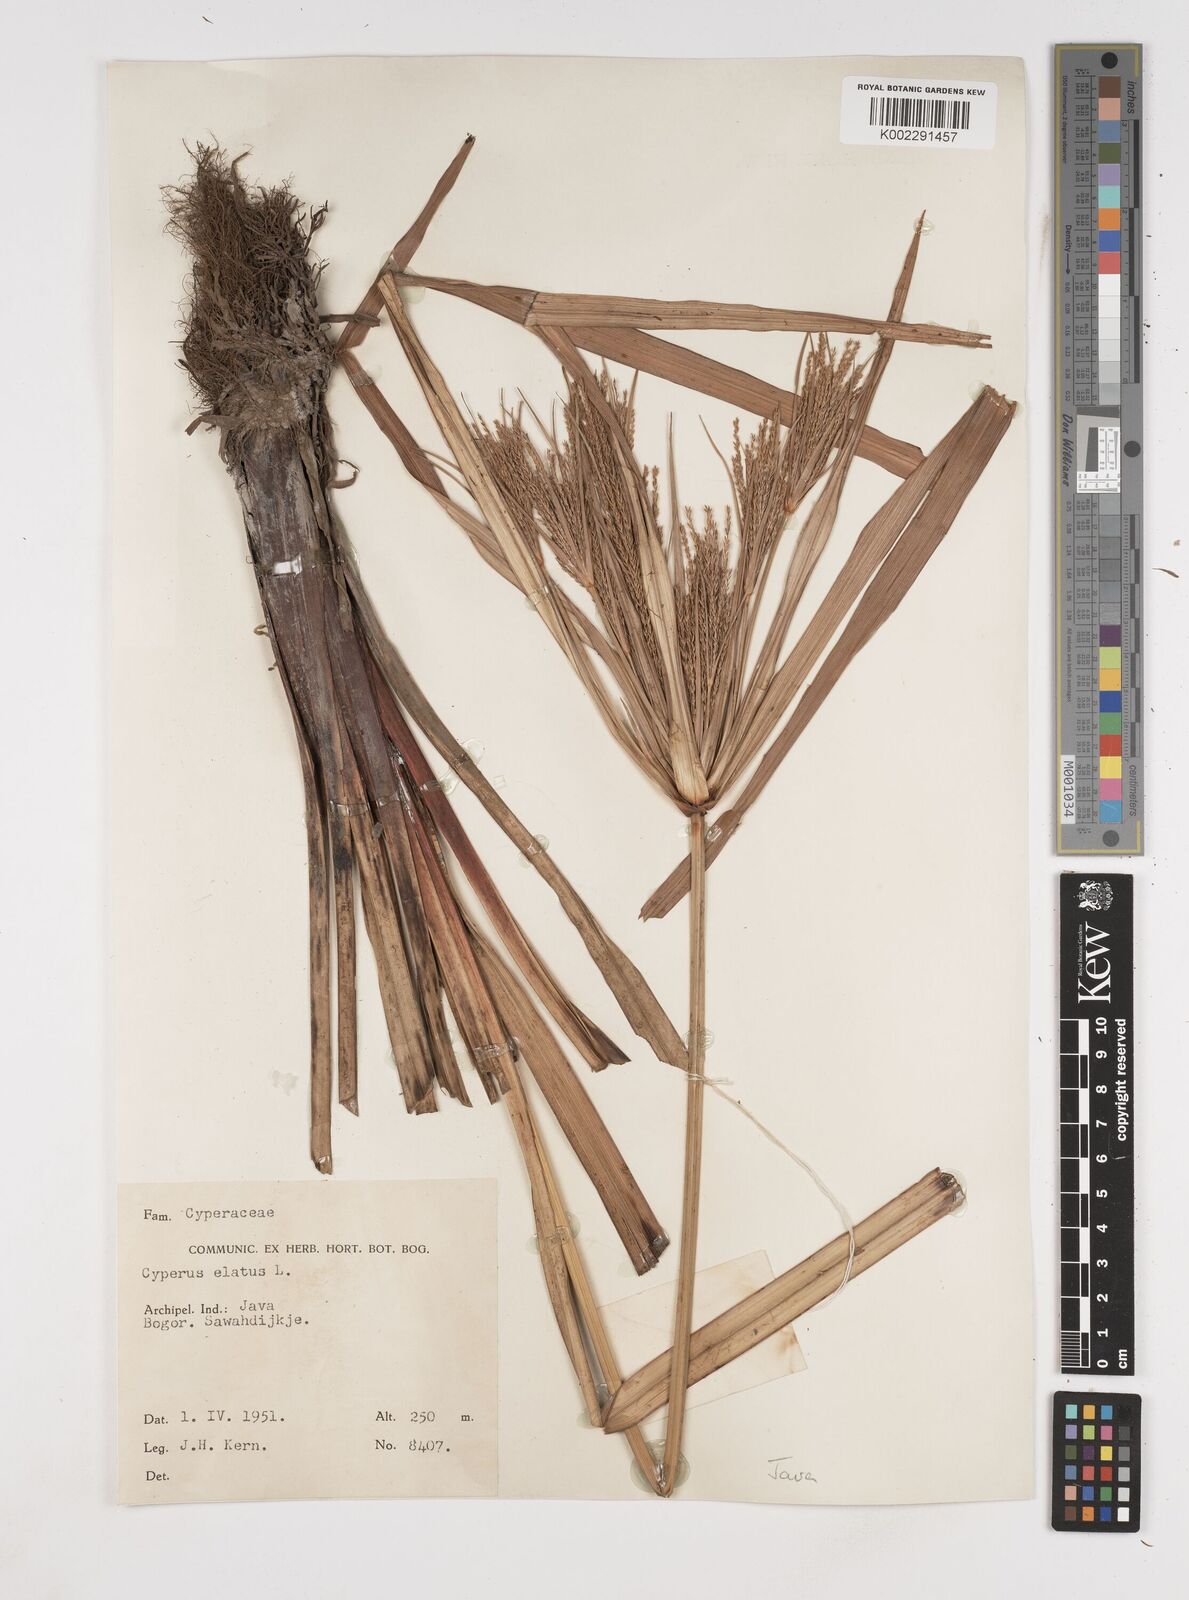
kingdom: Plantae
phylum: Tracheophyta
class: Liliopsida
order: Poales
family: Cyperaceae
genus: Cyperus
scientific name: Cyperus elatus
